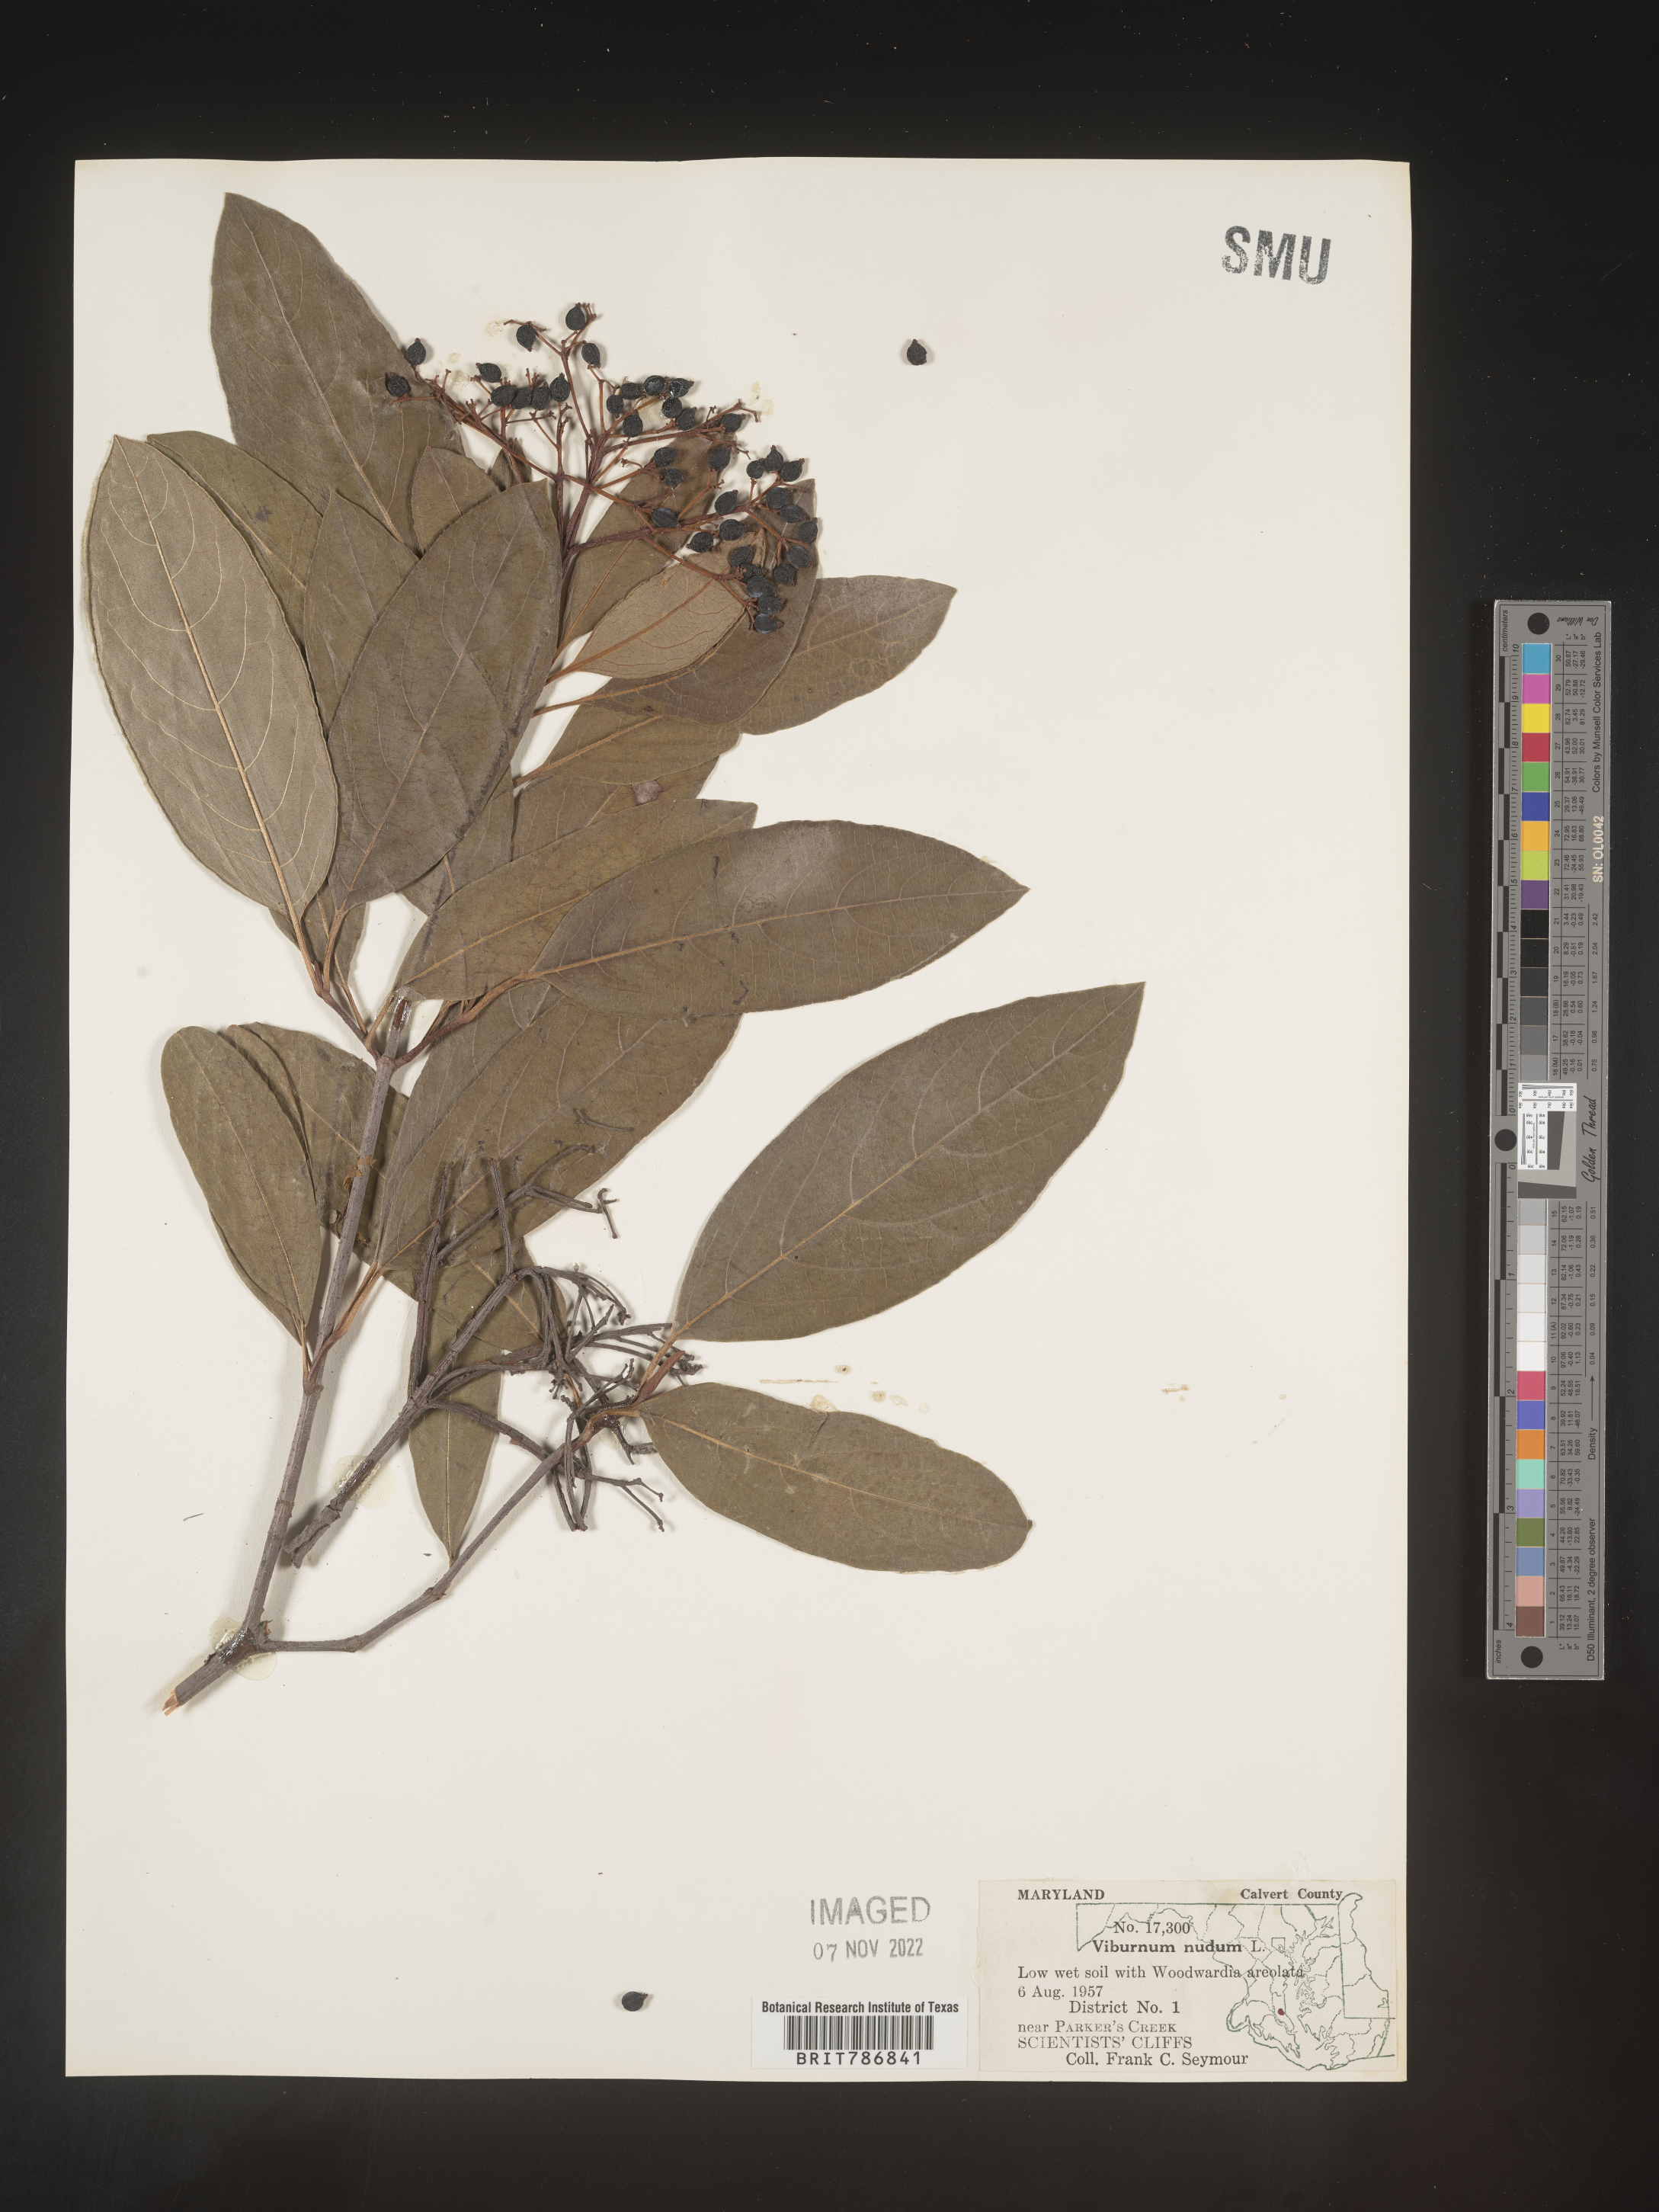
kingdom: Plantae
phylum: Tracheophyta
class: Magnoliopsida
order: Dipsacales
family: Viburnaceae
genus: Viburnum
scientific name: Viburnum nudum
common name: Possum haw
